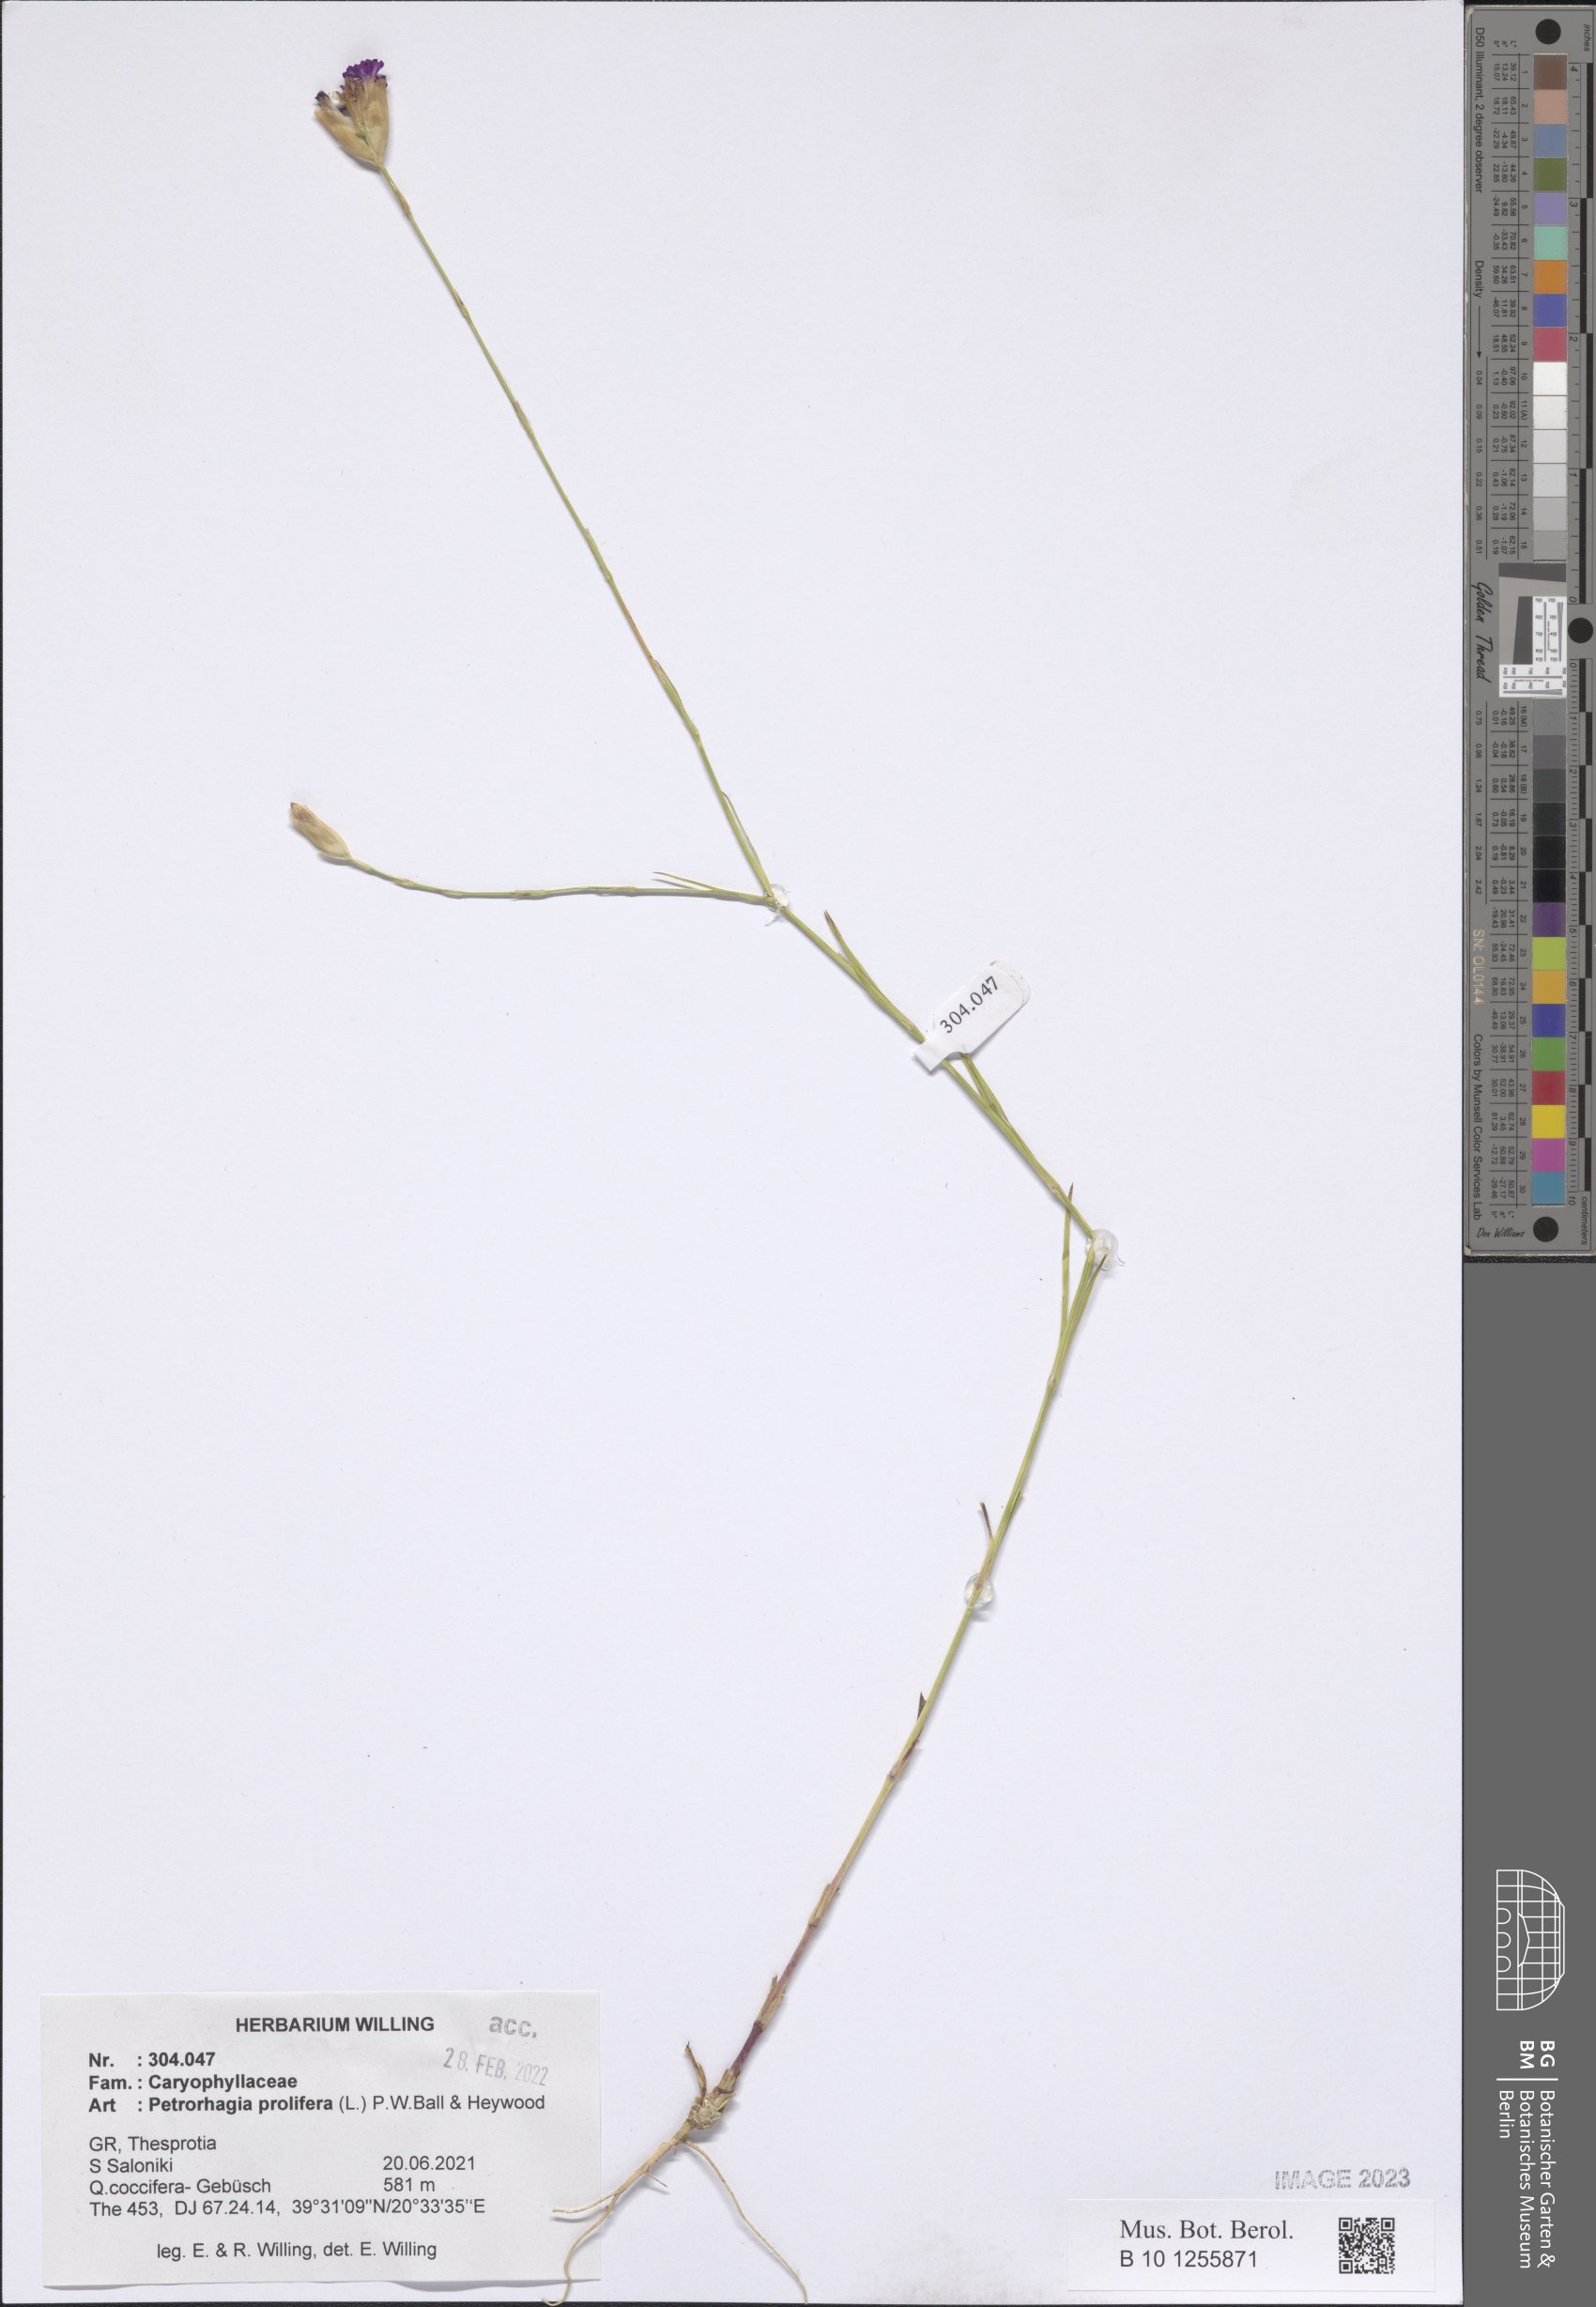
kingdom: Plantae
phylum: Tracheophyta
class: Magnoliopsida
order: Caryophyllales
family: Caryophyllaceae
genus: Petrorhagia
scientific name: Petrorhagia prolifera
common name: Proliferous pink
